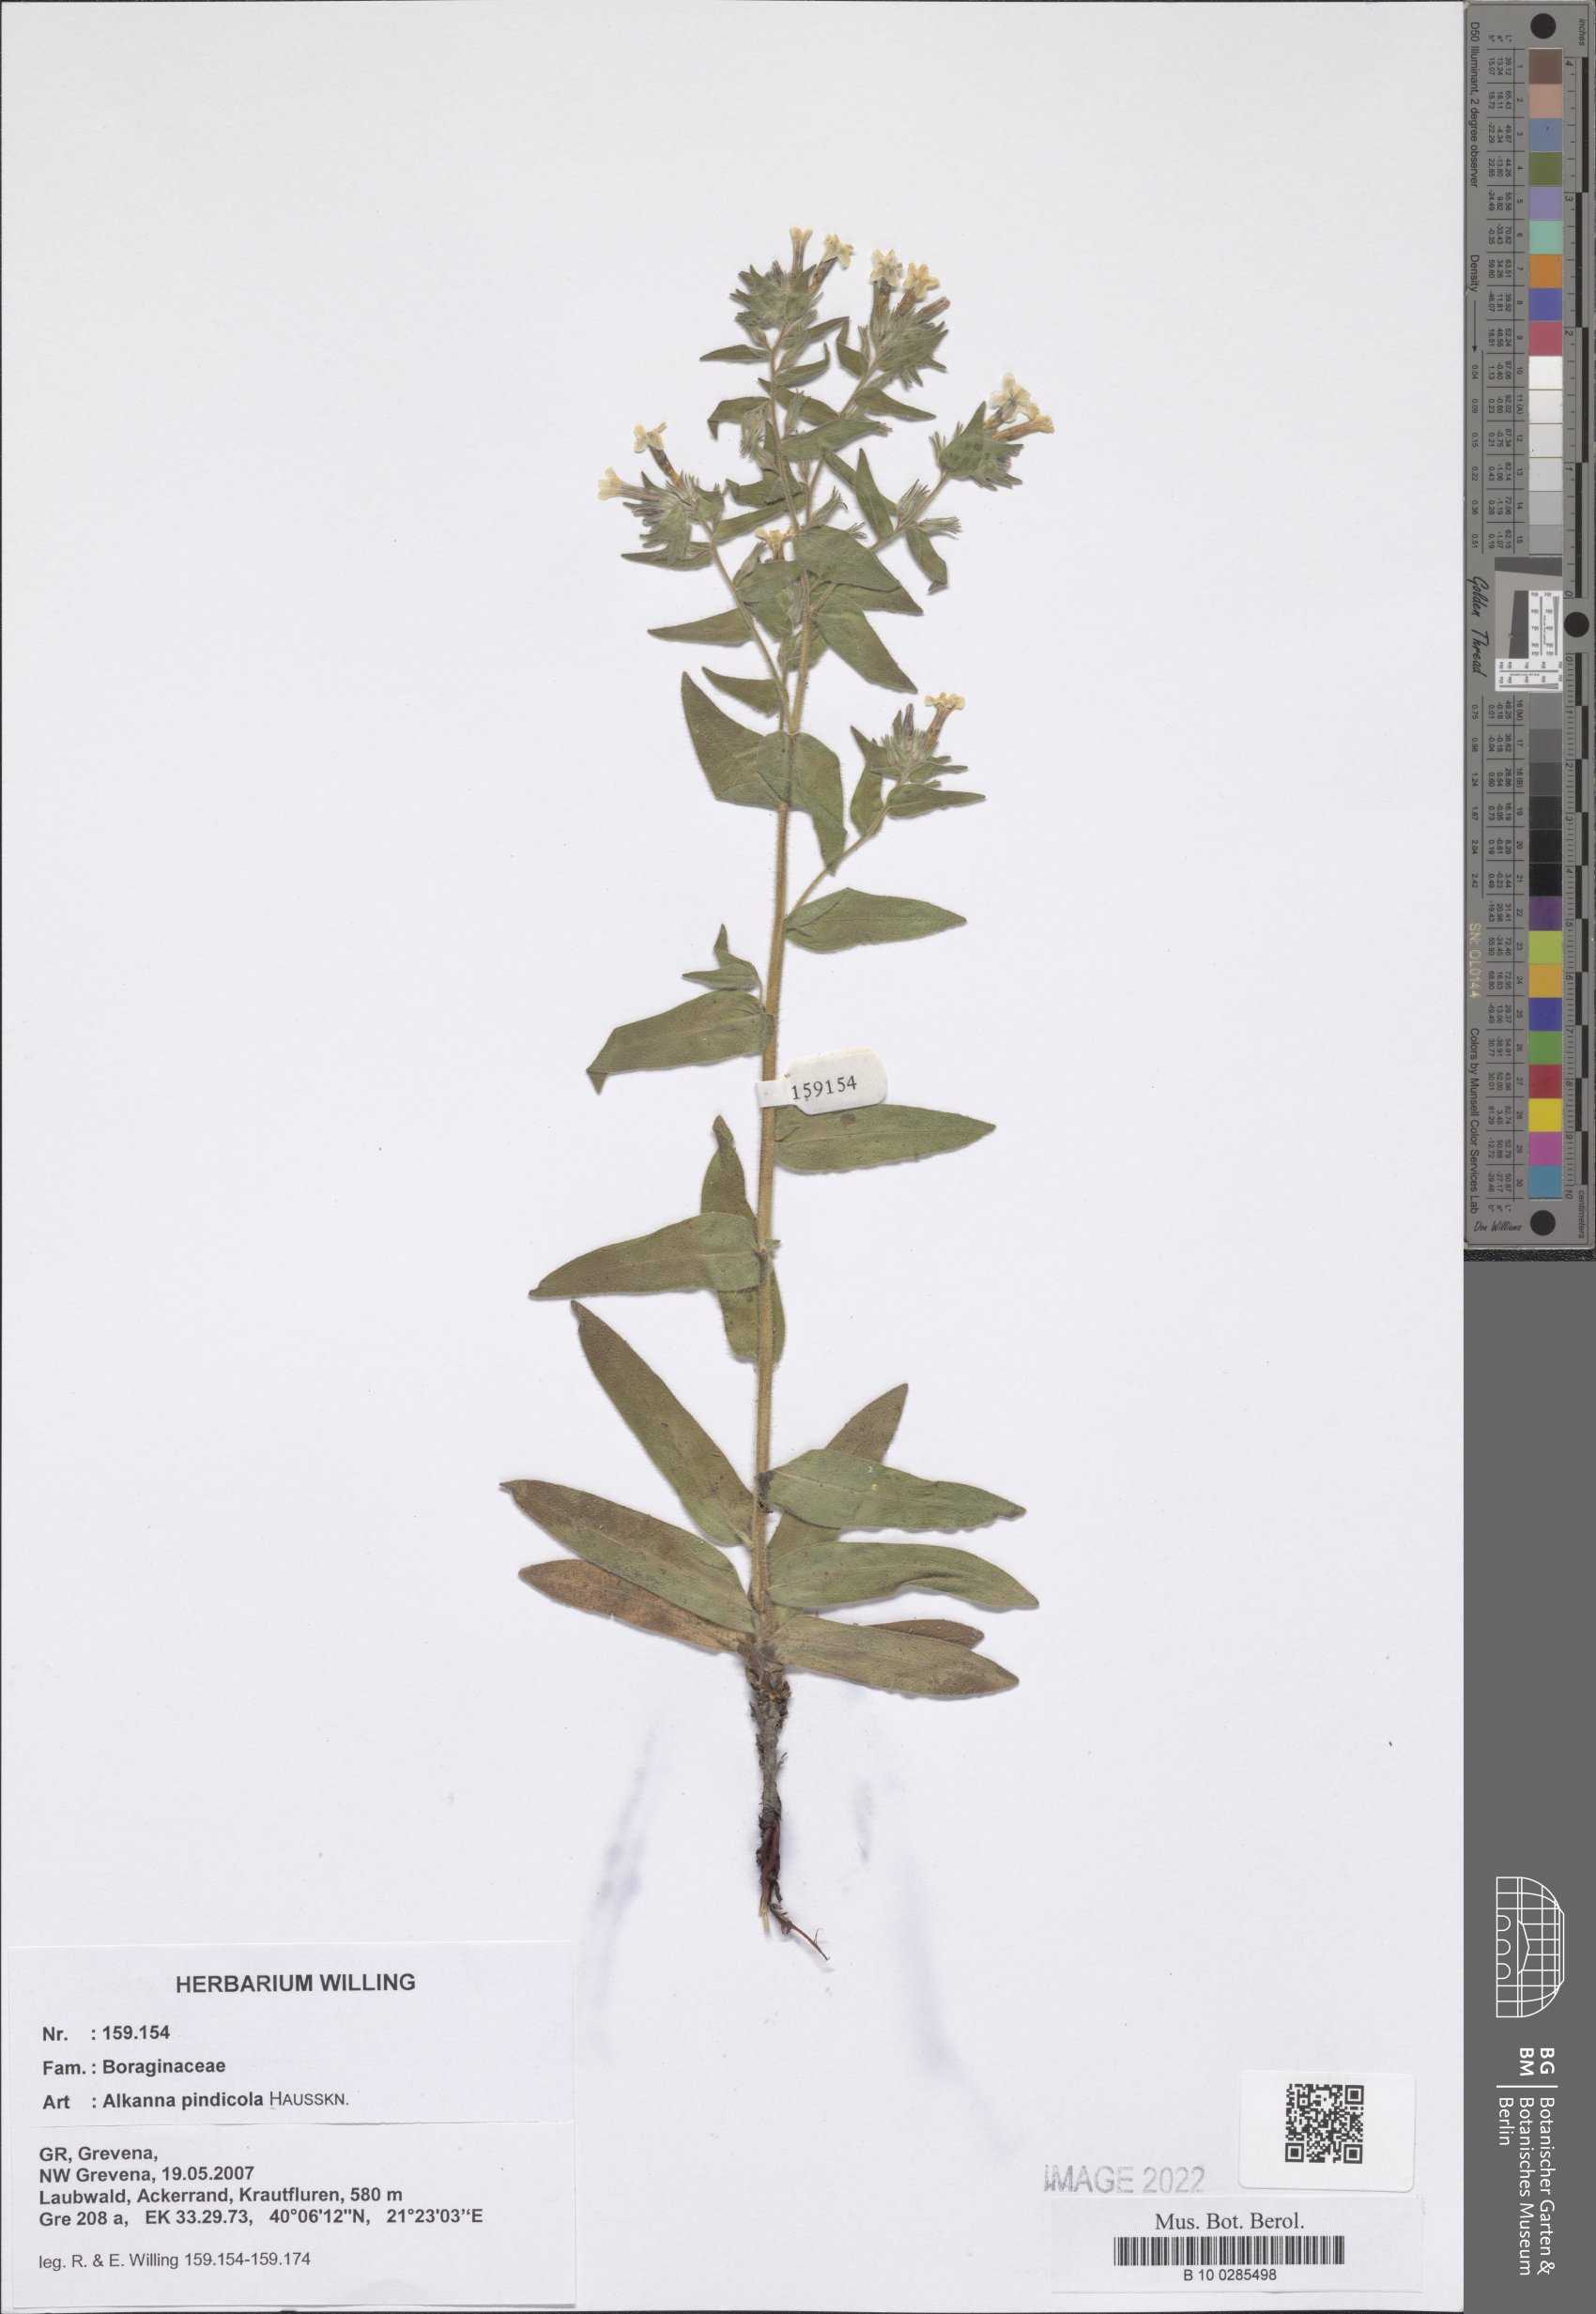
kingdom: Plantae
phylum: Tracheophyta
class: Magnoliopsida
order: Boraginales
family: Boraginaceae
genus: Alkanna
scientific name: Alkanna pindicola
